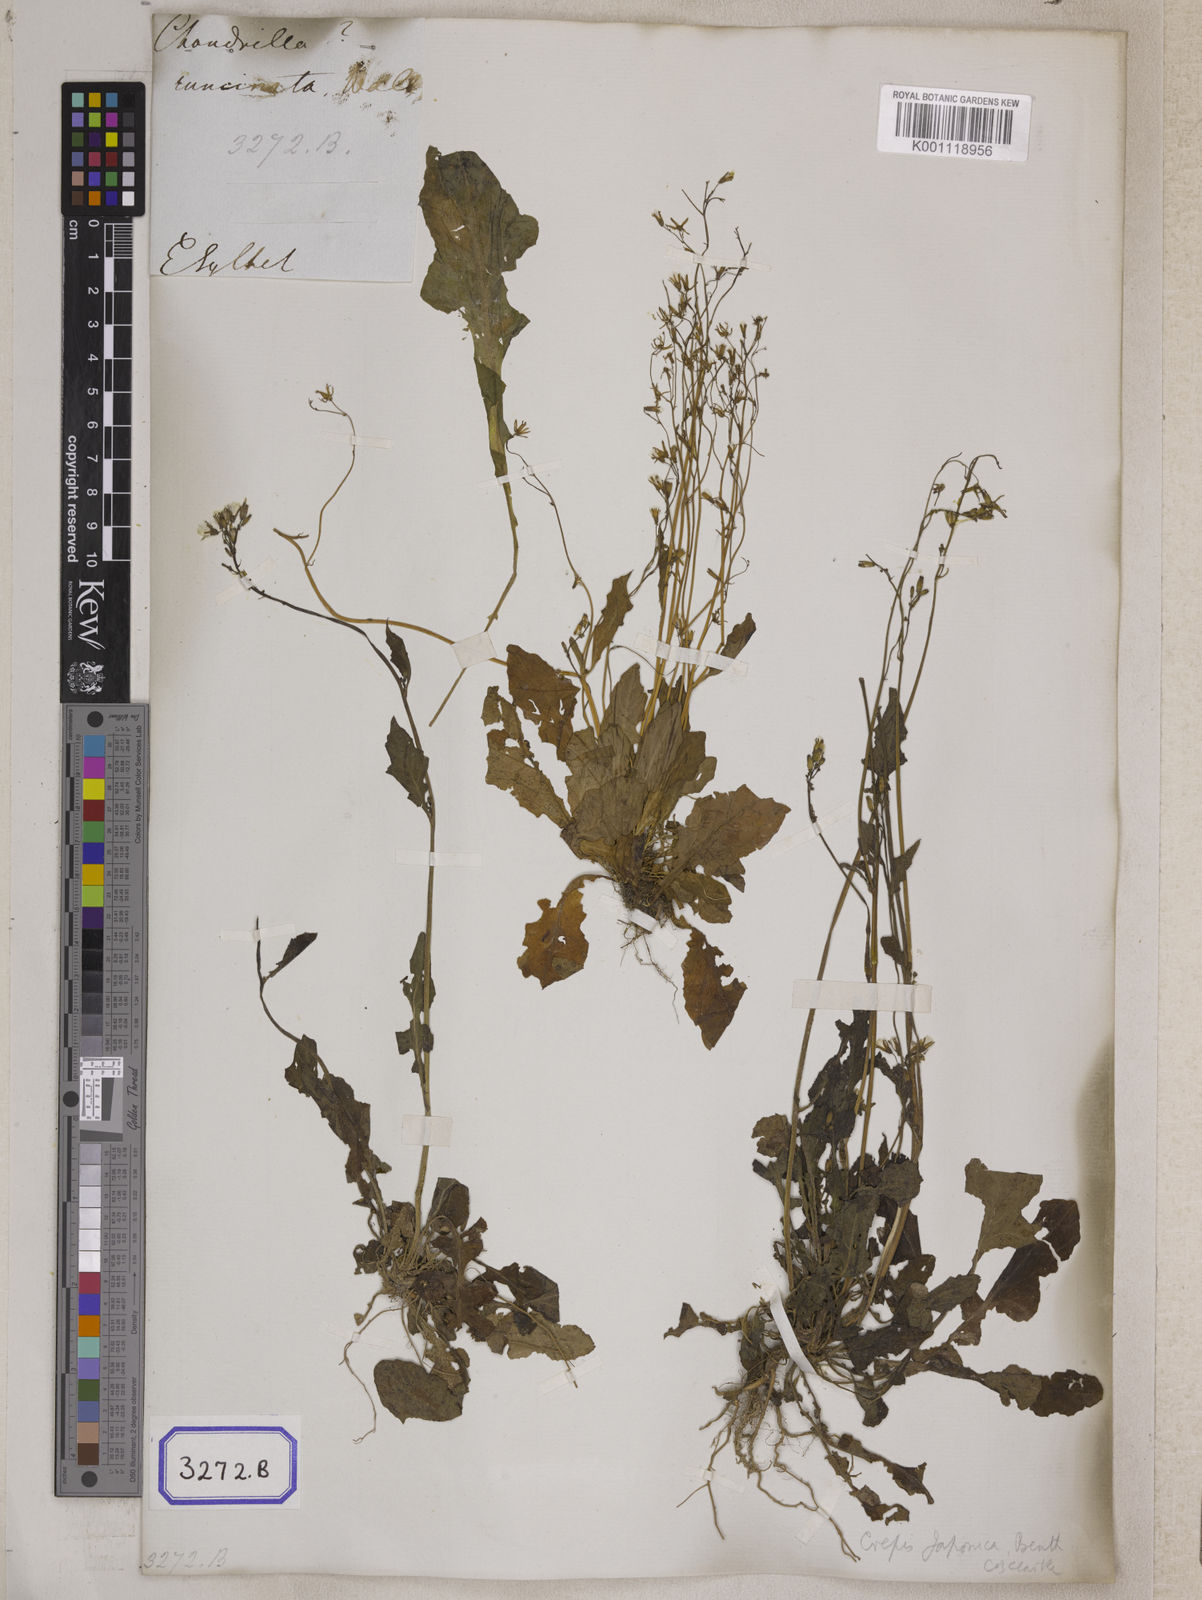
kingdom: Plantae
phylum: Tracheophyta
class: Magnoliopsida
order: Asterales
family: Asteraceae
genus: Youngia
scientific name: Youngia japonica
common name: Oriental false hawksbeard
